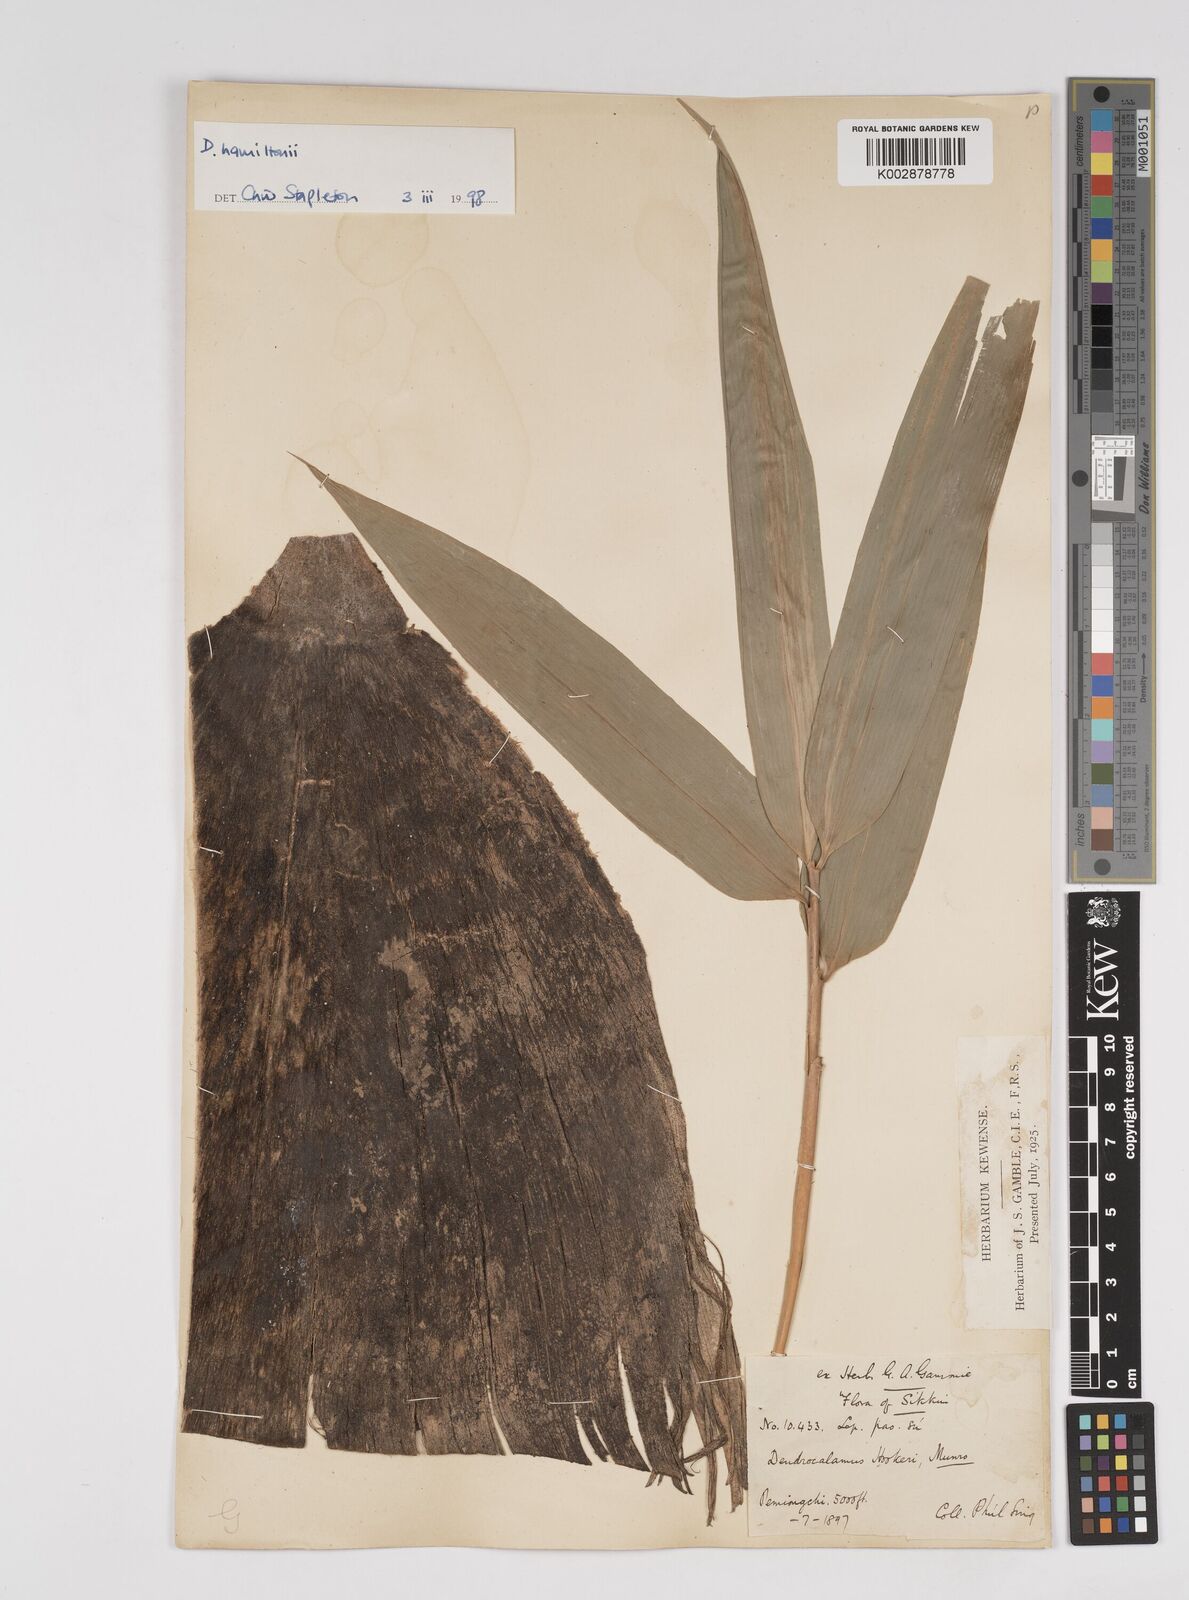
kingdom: Plantae
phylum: Tracheophyta
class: Liliopsida
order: Poales
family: Poaceae
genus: Dendrocalamus
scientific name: Dendrocalamus hamiltonii
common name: Tama bamboo
